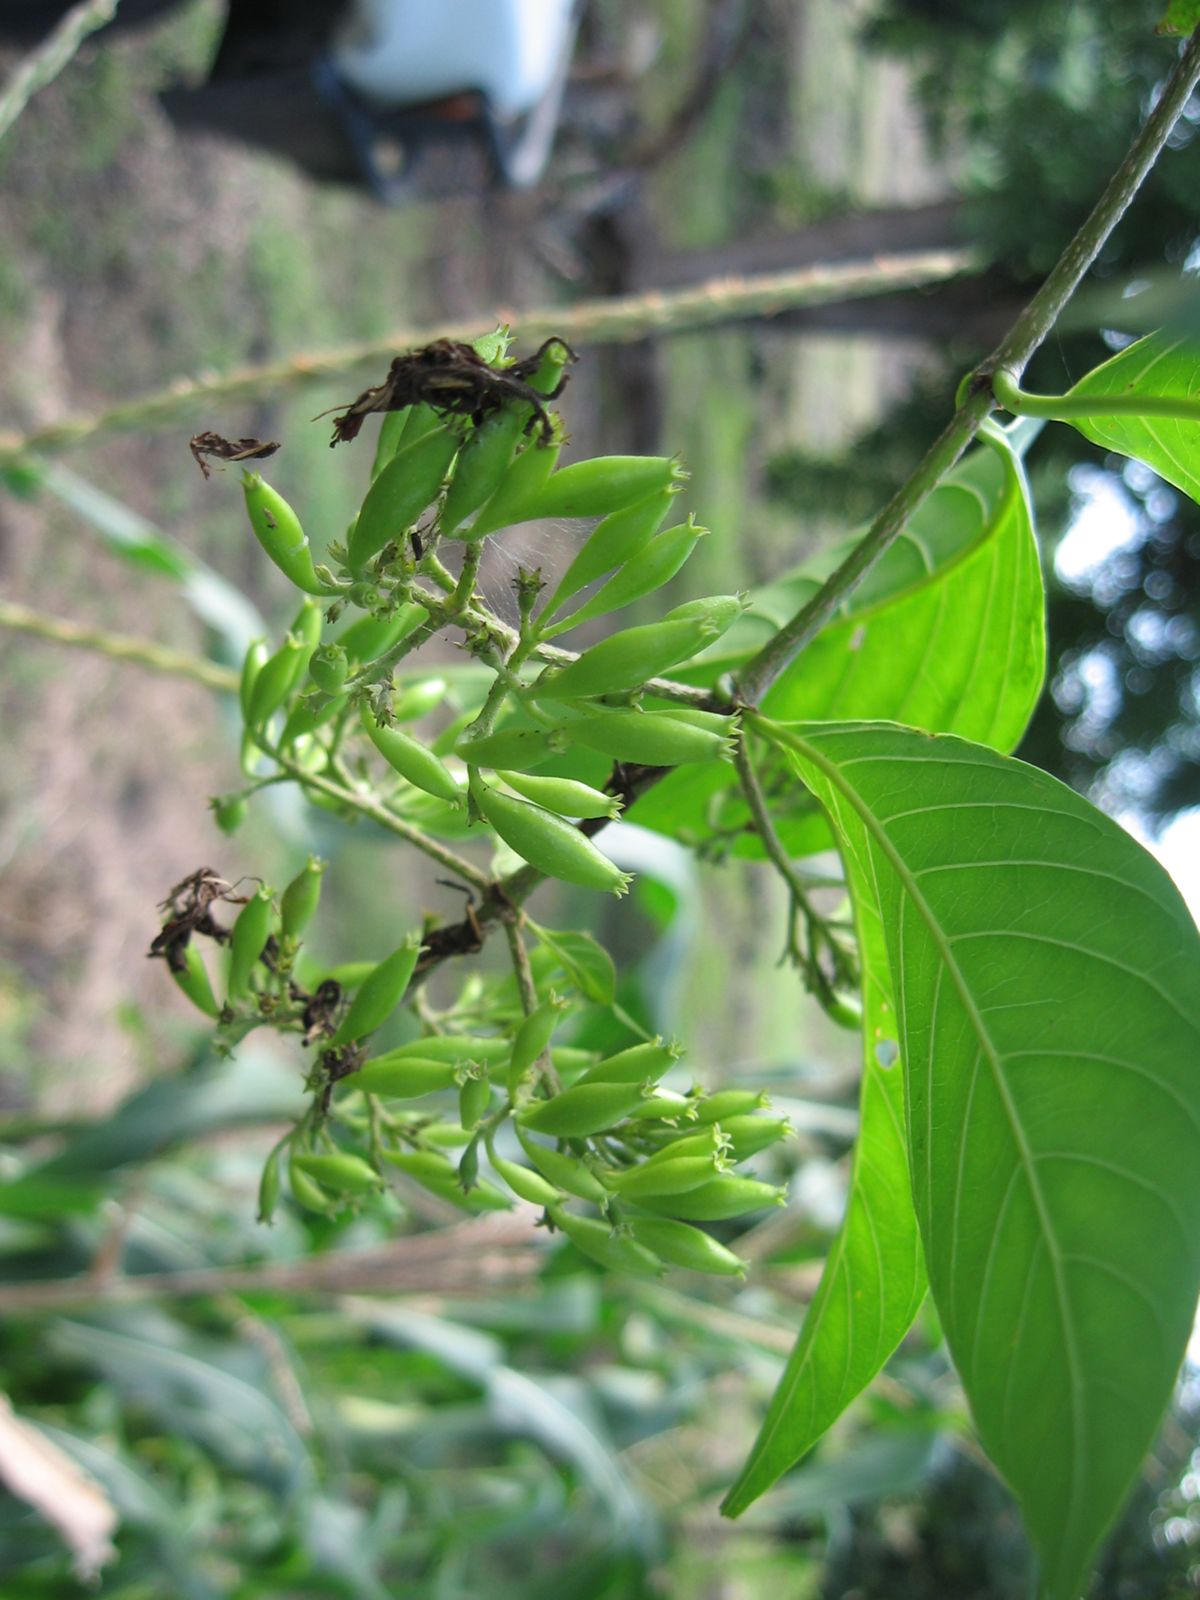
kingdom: Plantae
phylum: Tracheophyta
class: Magnoliopsida
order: Gentianales
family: Rubiaceae
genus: Solenandra
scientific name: Solenandra mexicana
